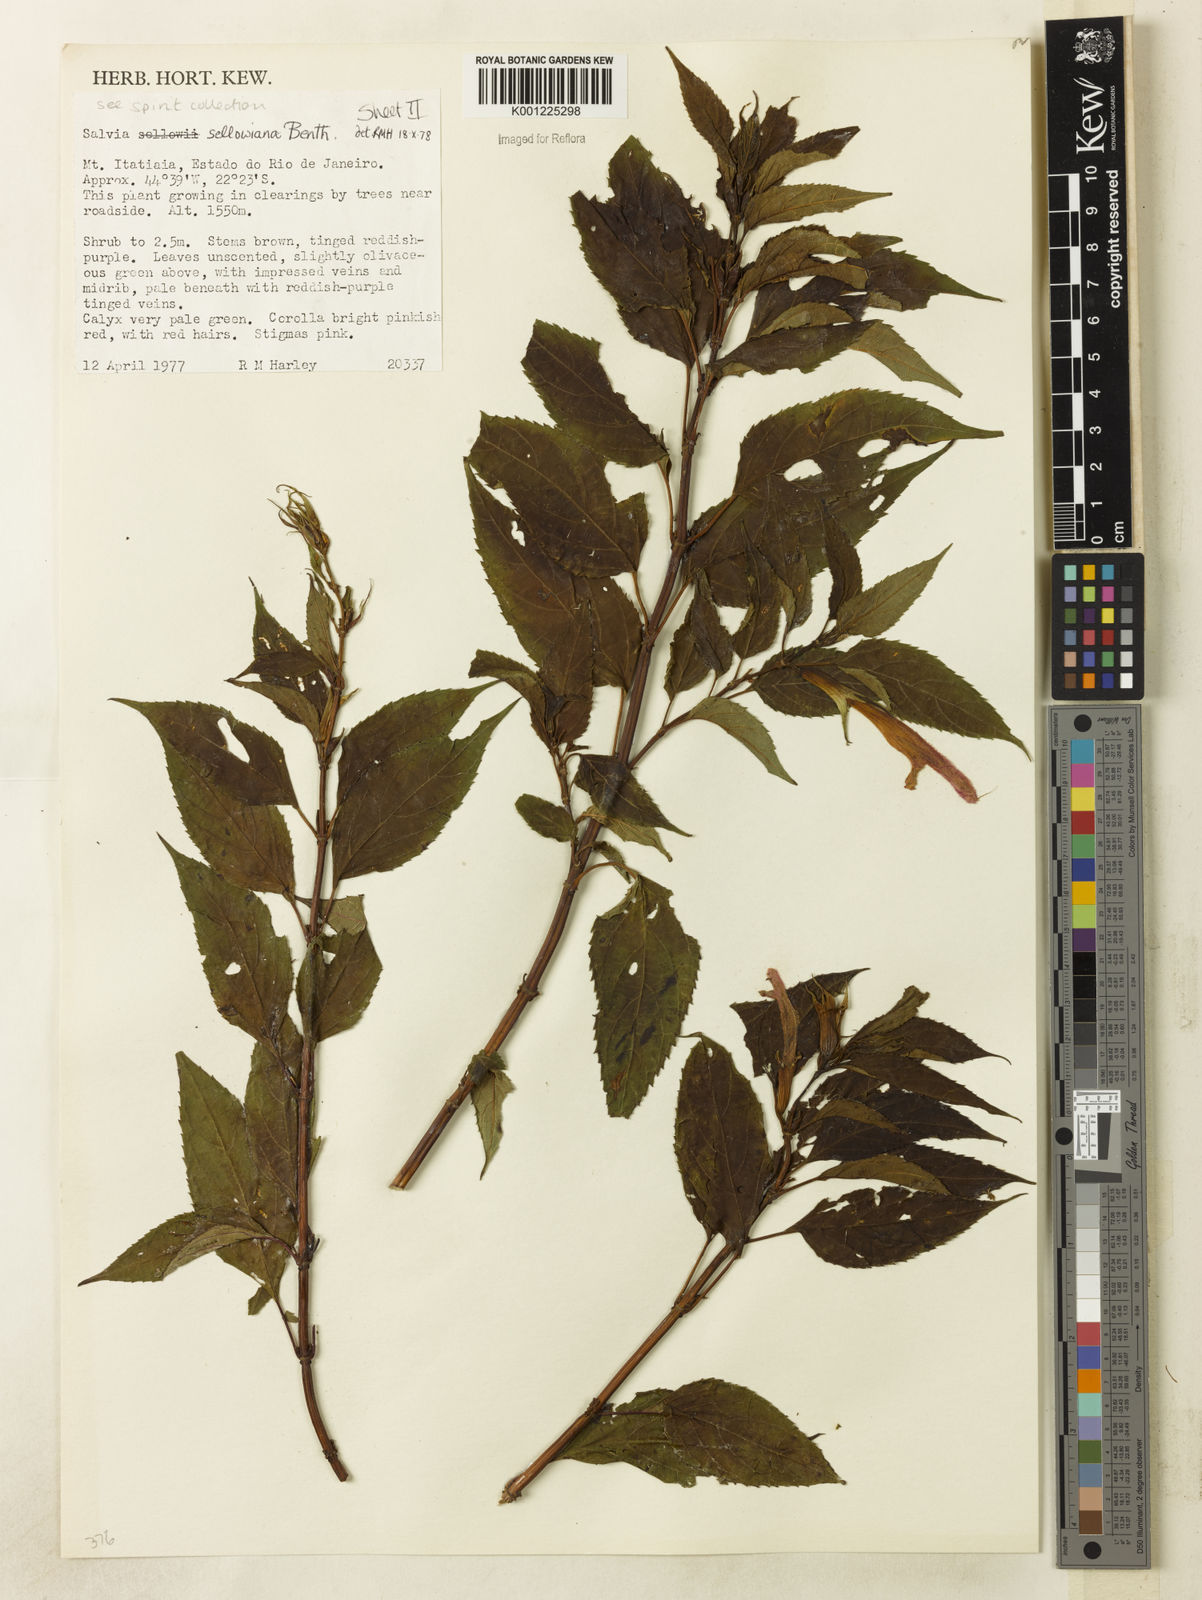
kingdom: Plantae
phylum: Tracheophyta
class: Magnoliopsida
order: Lamiales
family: Lamiaceae
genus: Salvia
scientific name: Salvia sellowiana
